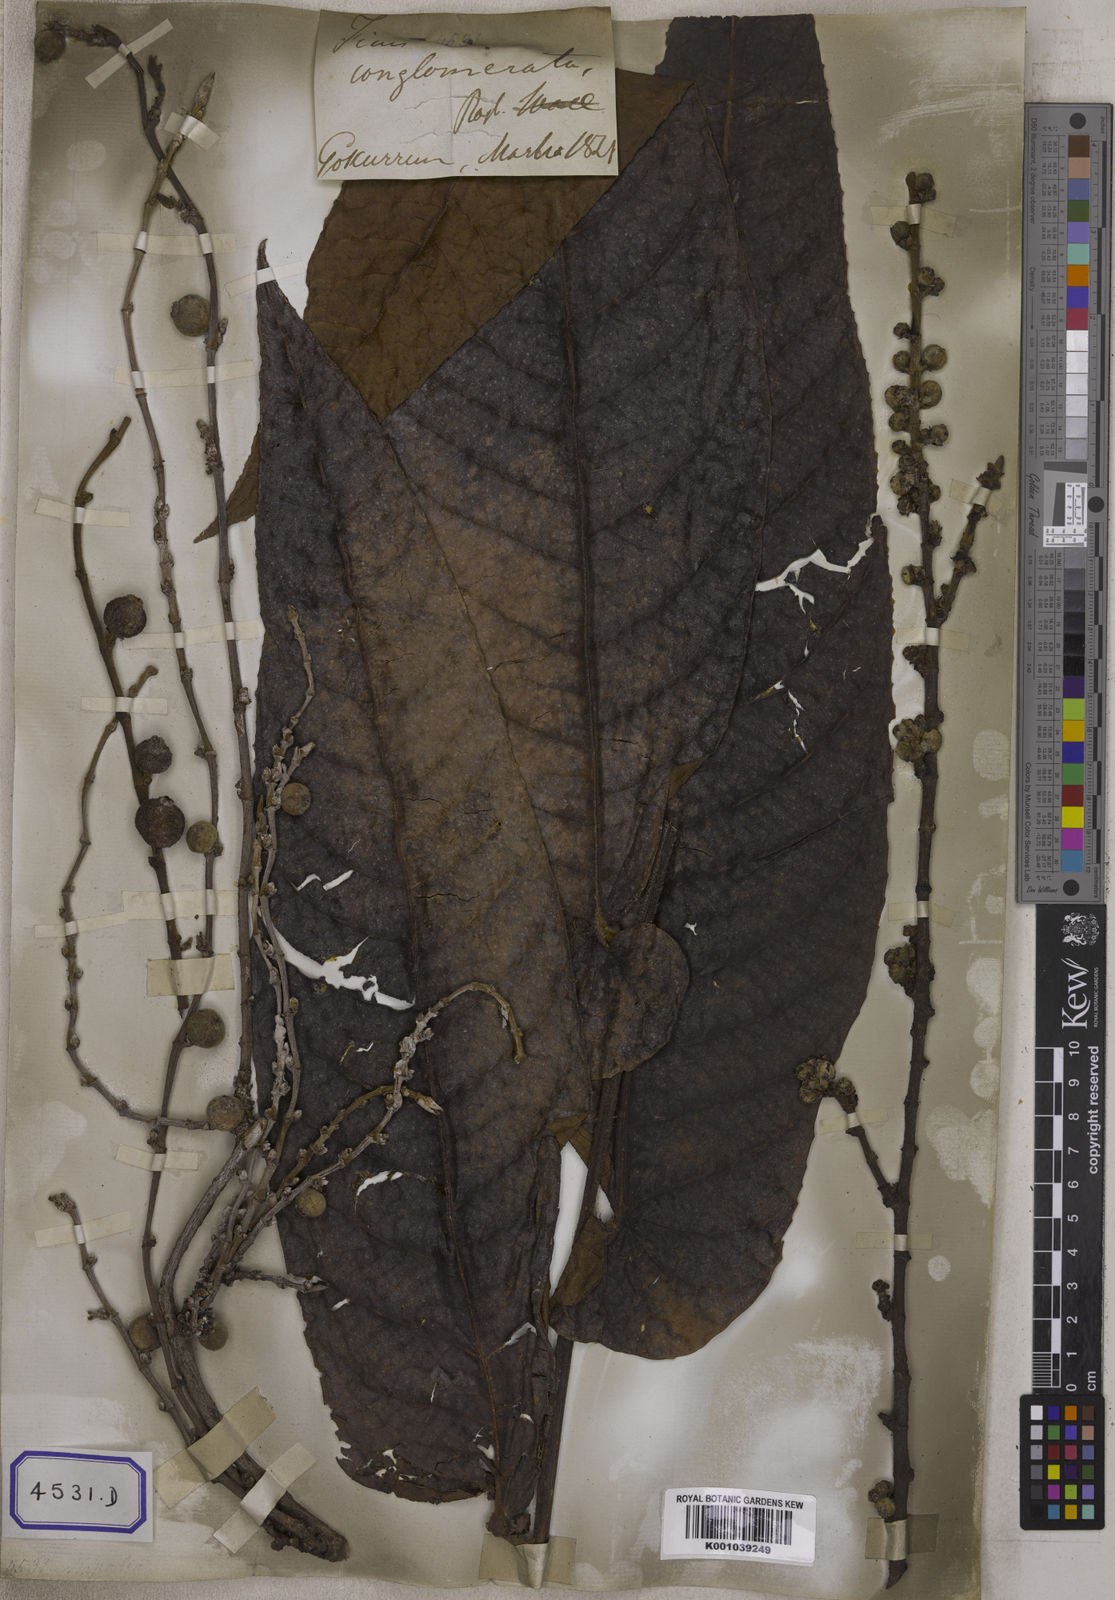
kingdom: Plantae
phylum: Tracheophyta
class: Magnoliopsida
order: Rosales
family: Moraceae
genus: Ficus
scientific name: Ficus semicordata
